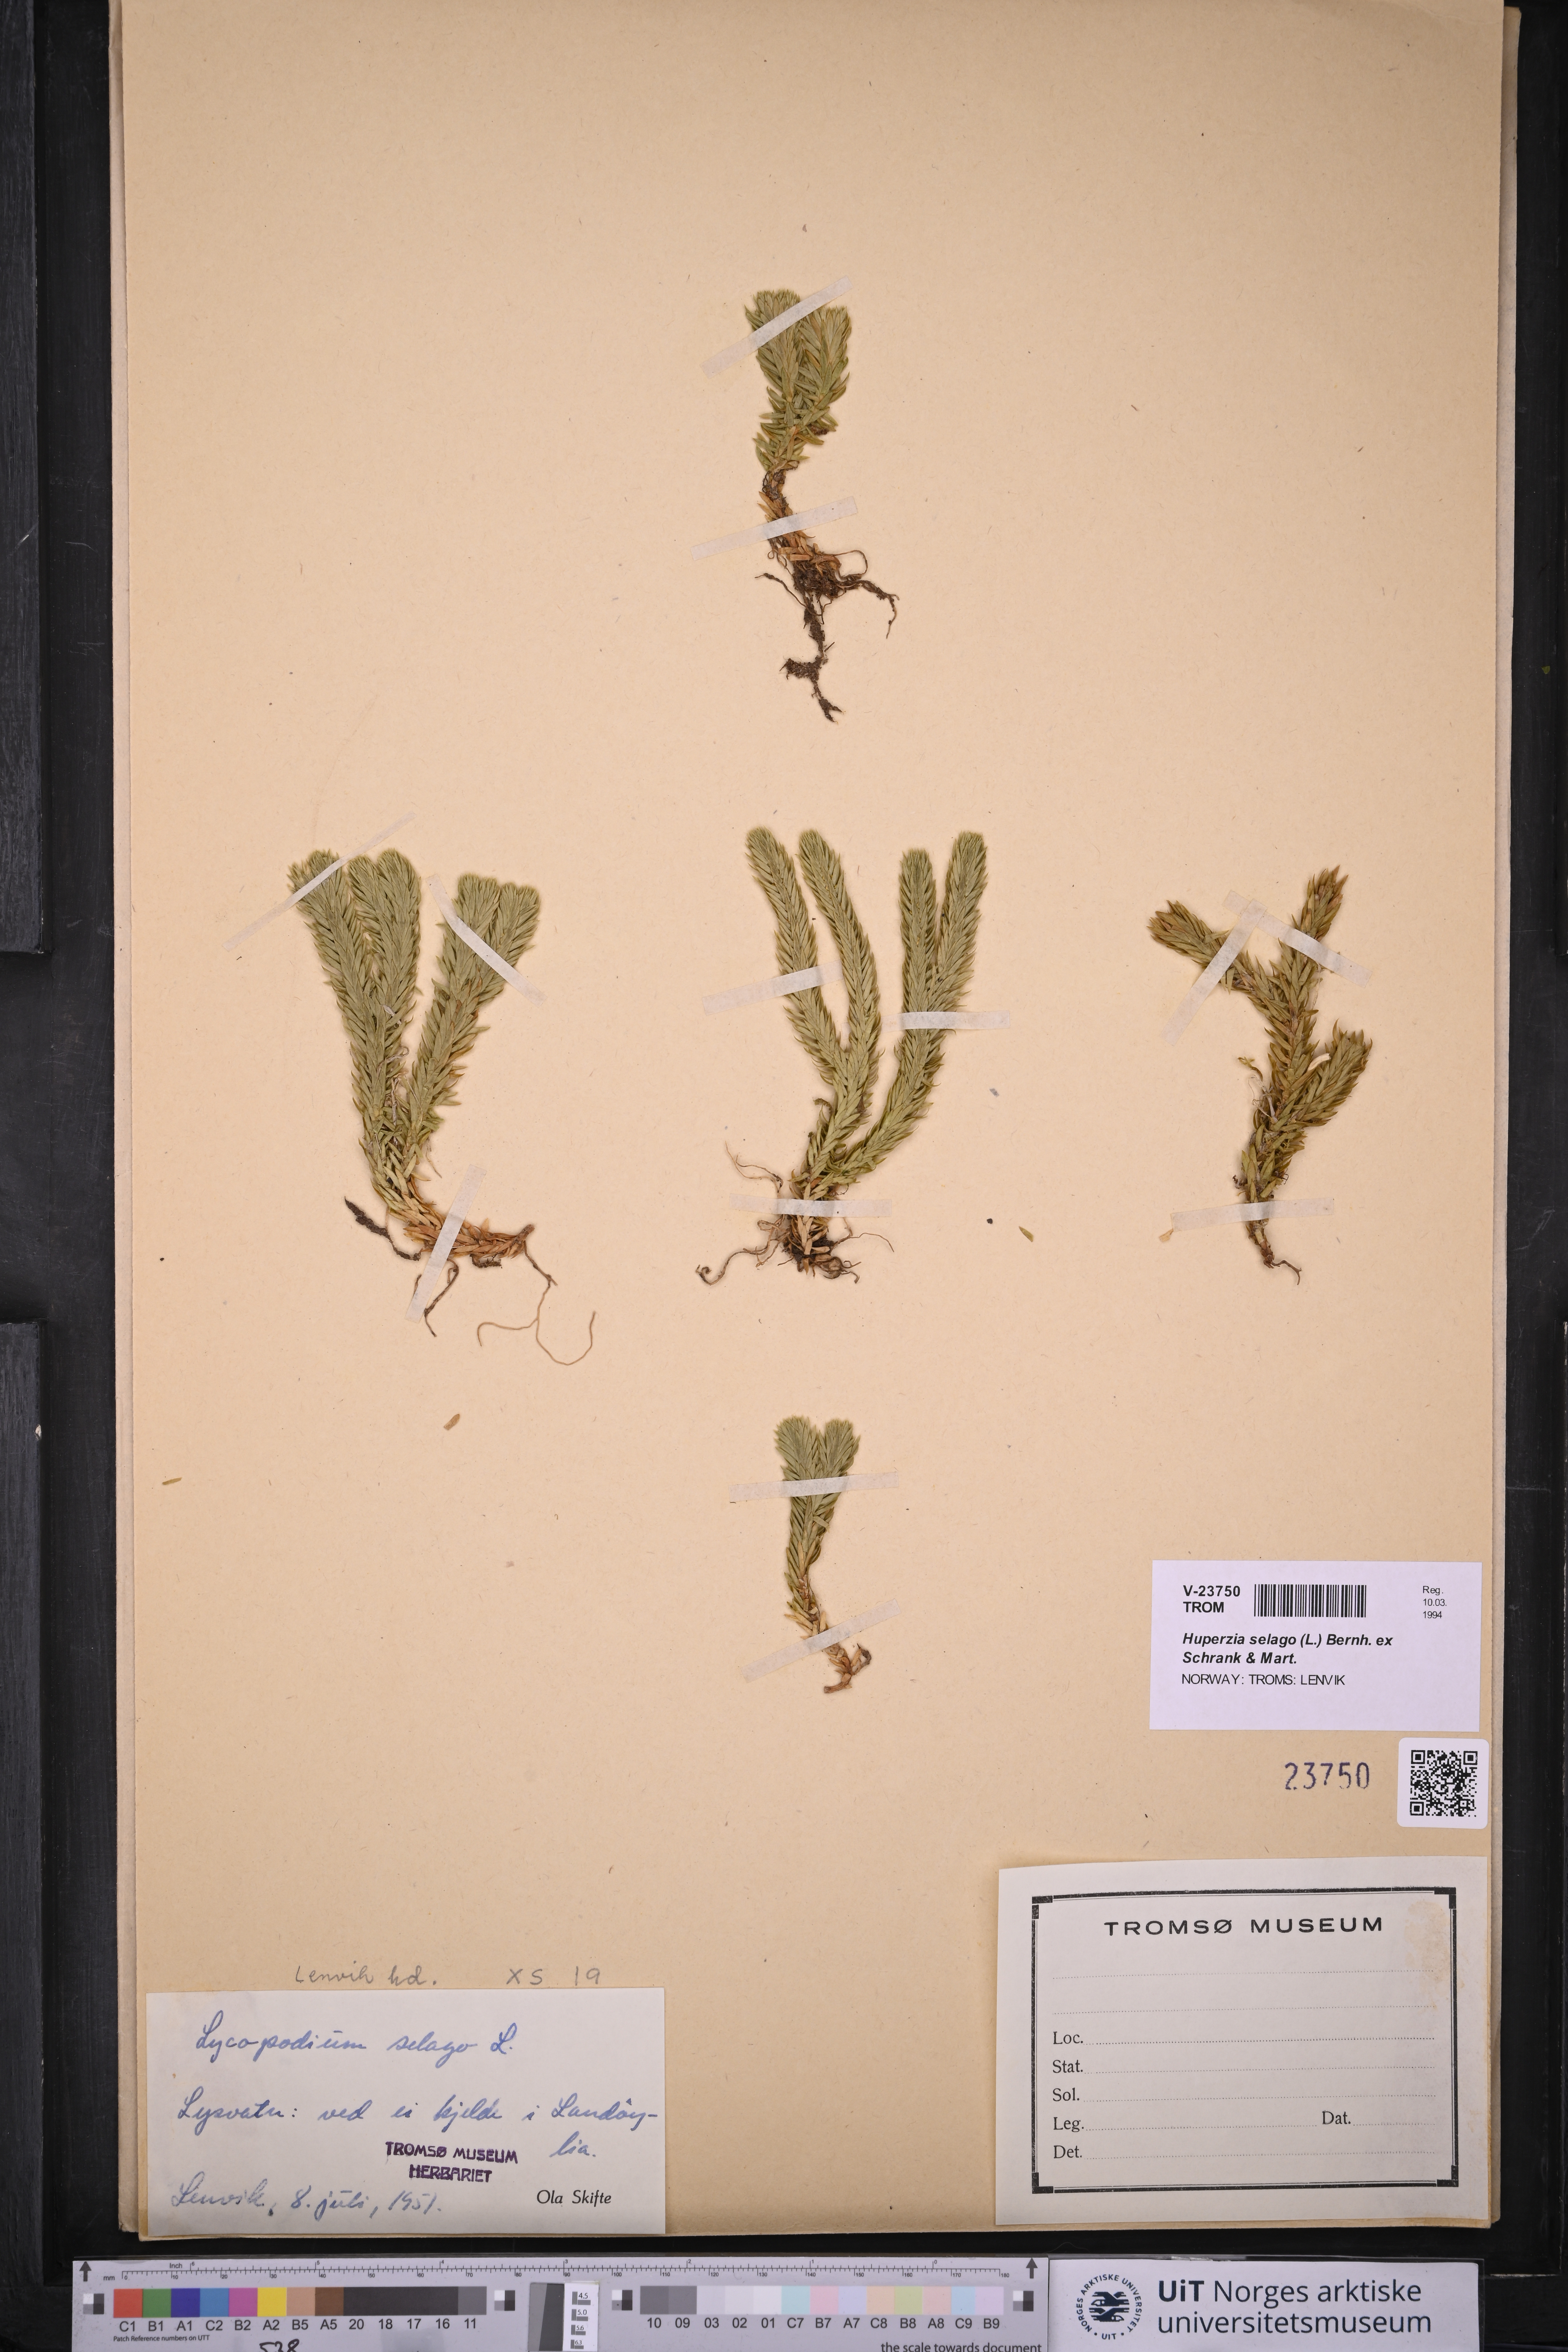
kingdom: Plantae
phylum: Tracheophyta
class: Lycopodiopsida
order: Lycopodiales
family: Lycopodiaceae
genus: Huperzia
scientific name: Huperzia selago
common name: Northern firmoss
